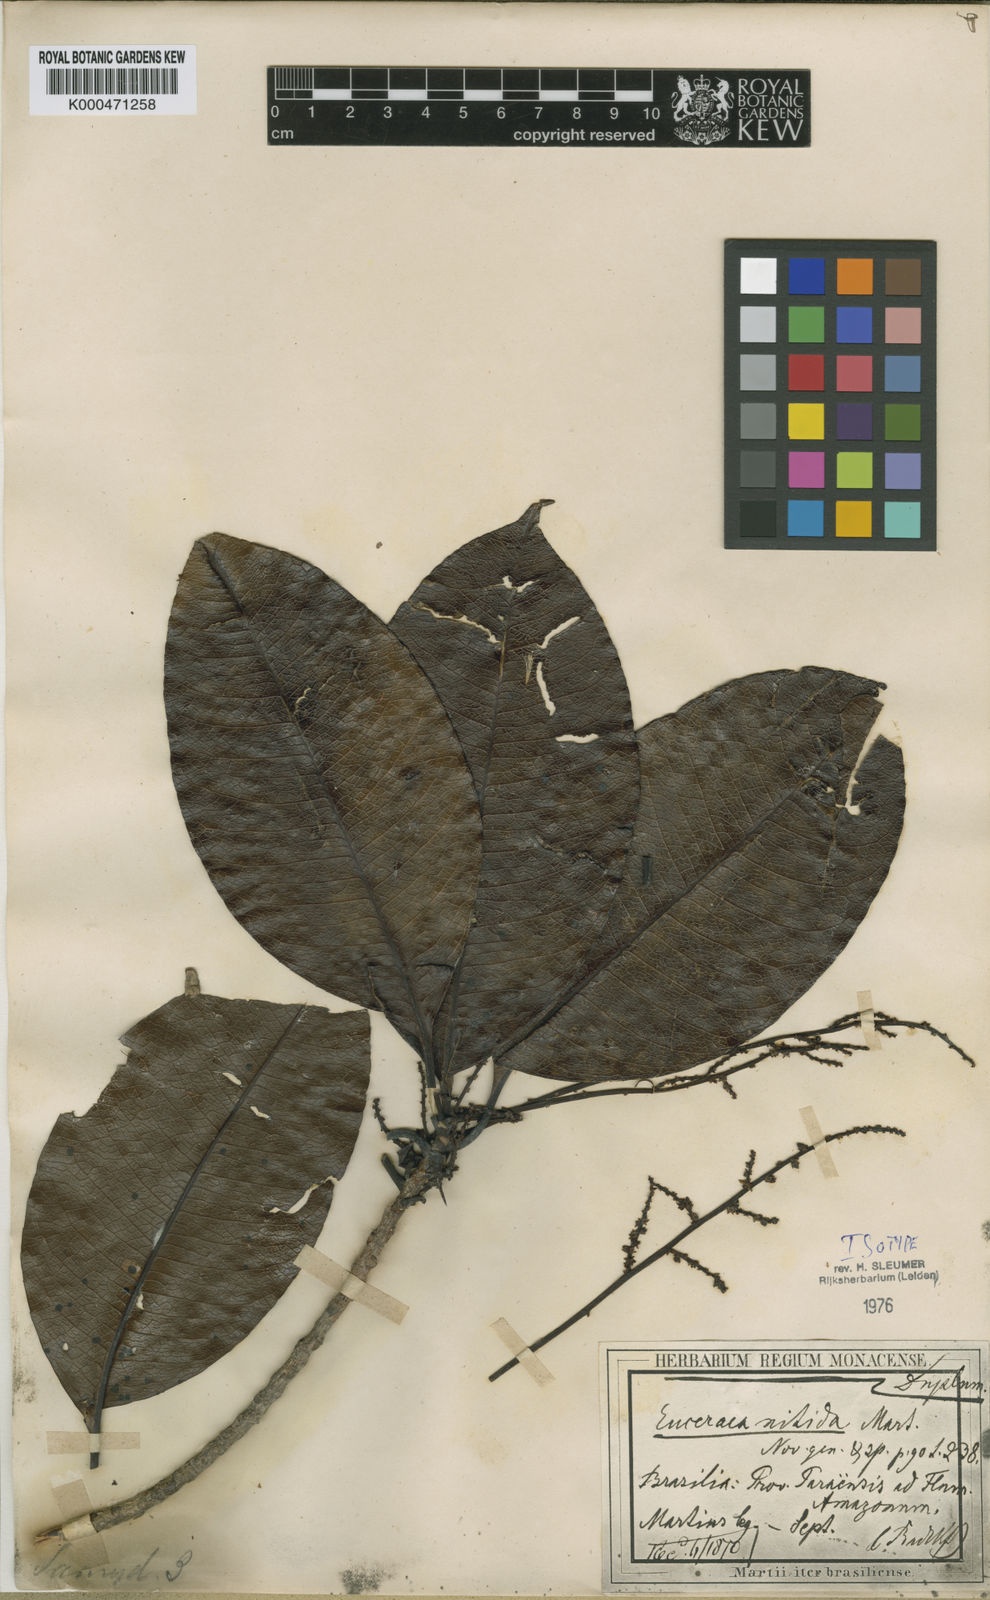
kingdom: Plantae
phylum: Tracheophyta
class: Magnoliopsida
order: Malpighiales
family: Salicaceae
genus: Casearia
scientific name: Casearia euceraea
